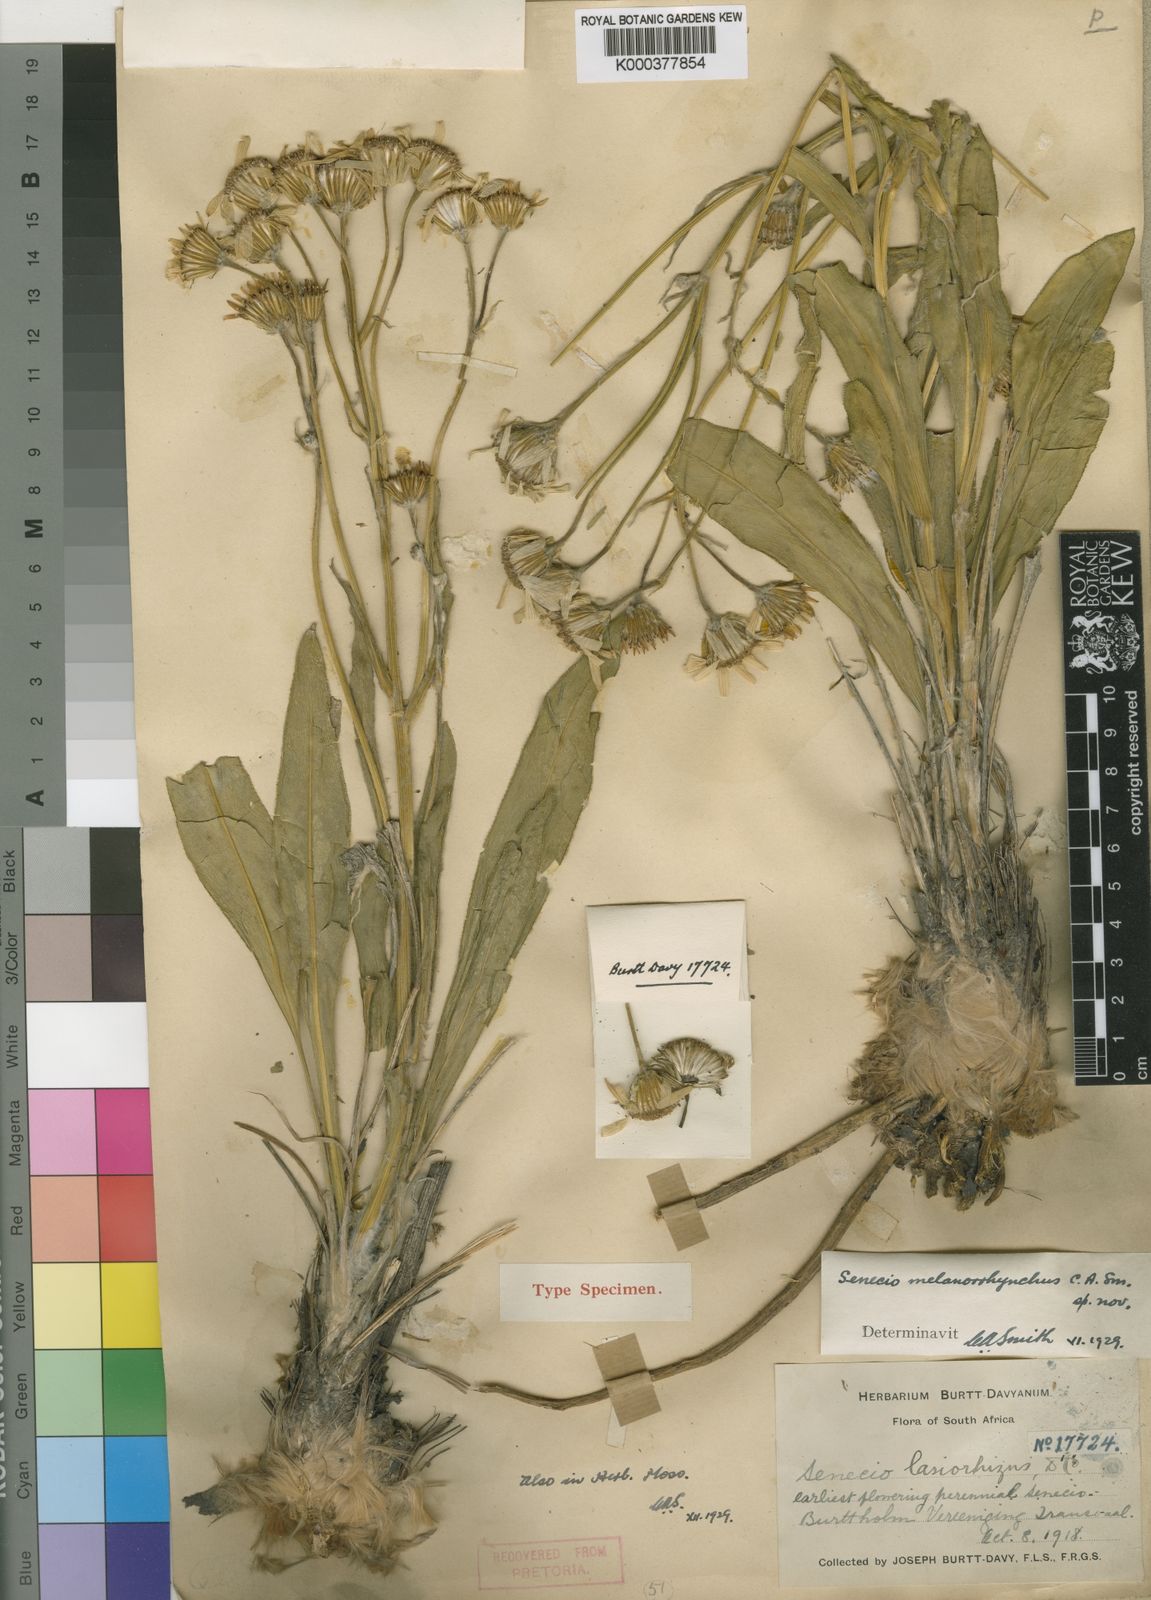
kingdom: Plantae
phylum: Tracheophyta
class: Magnoliopsida
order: Asterales
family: Asteraceae
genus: Senecio
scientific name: Senecio coronatus
